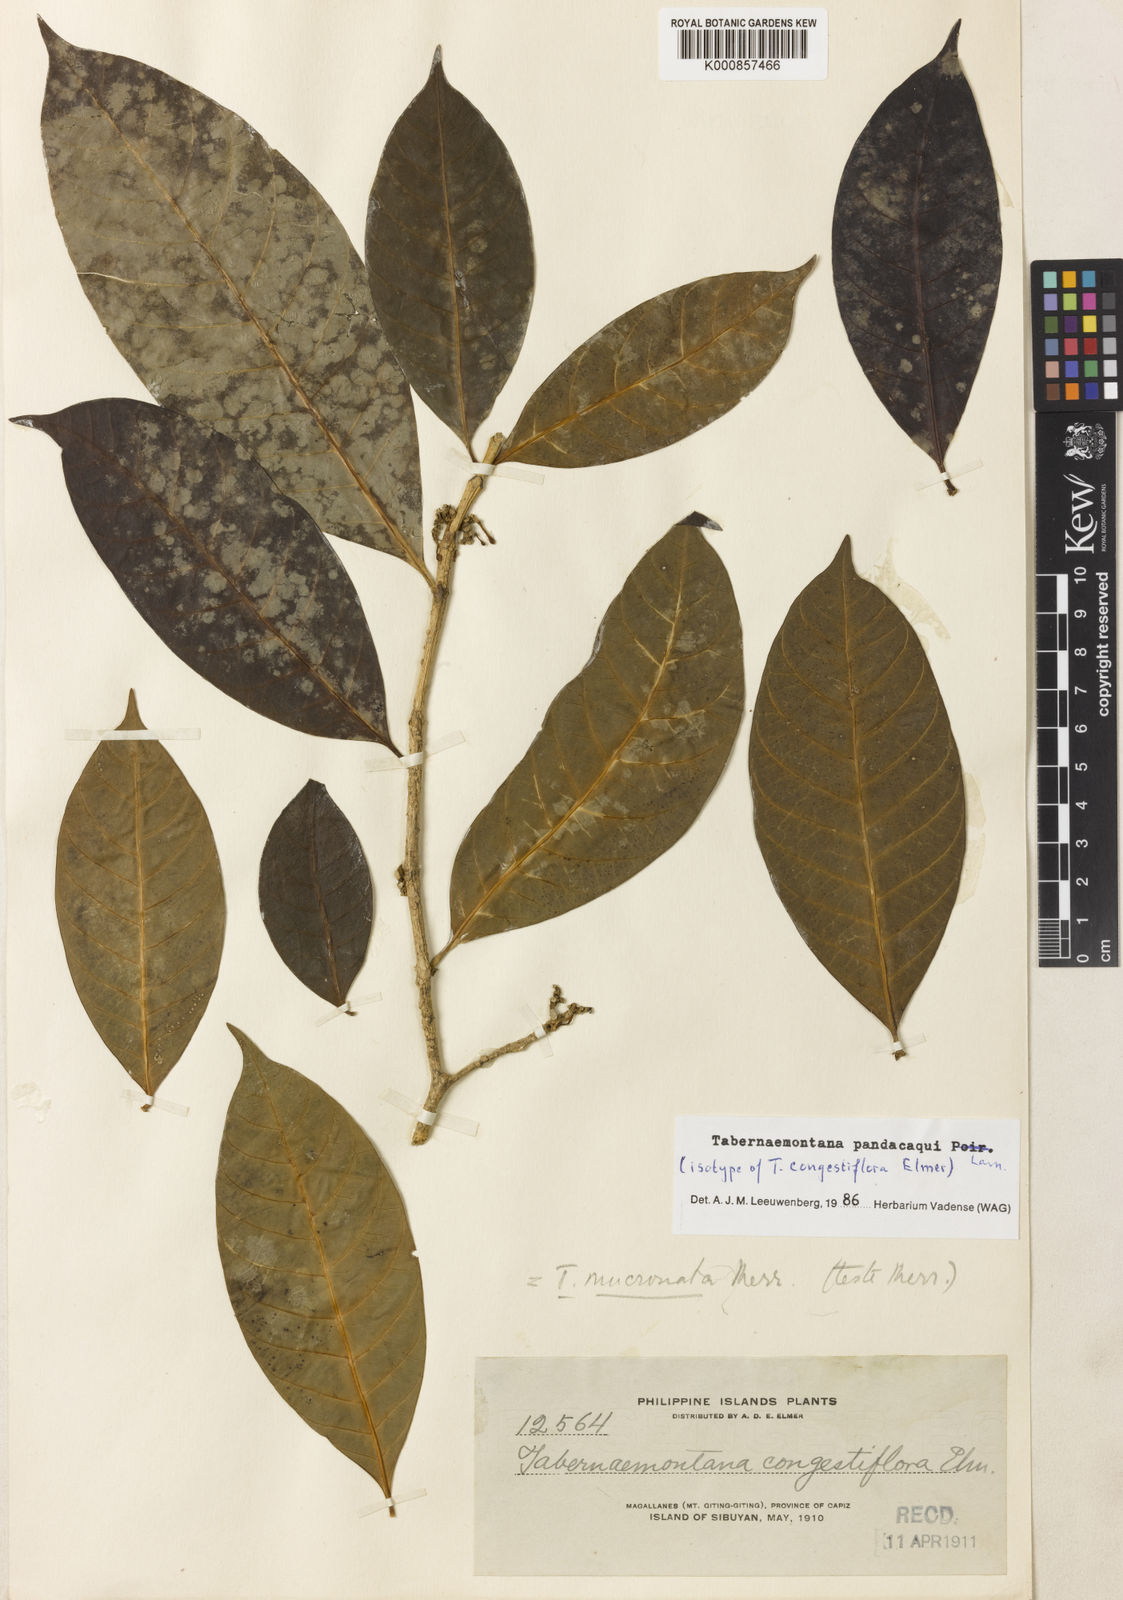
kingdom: Plantae
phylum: Tracheophyta
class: Magnoliopsida
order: Gentianales
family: Apocynaceae
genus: Tabernaemontana
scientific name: Tabernaemontana
